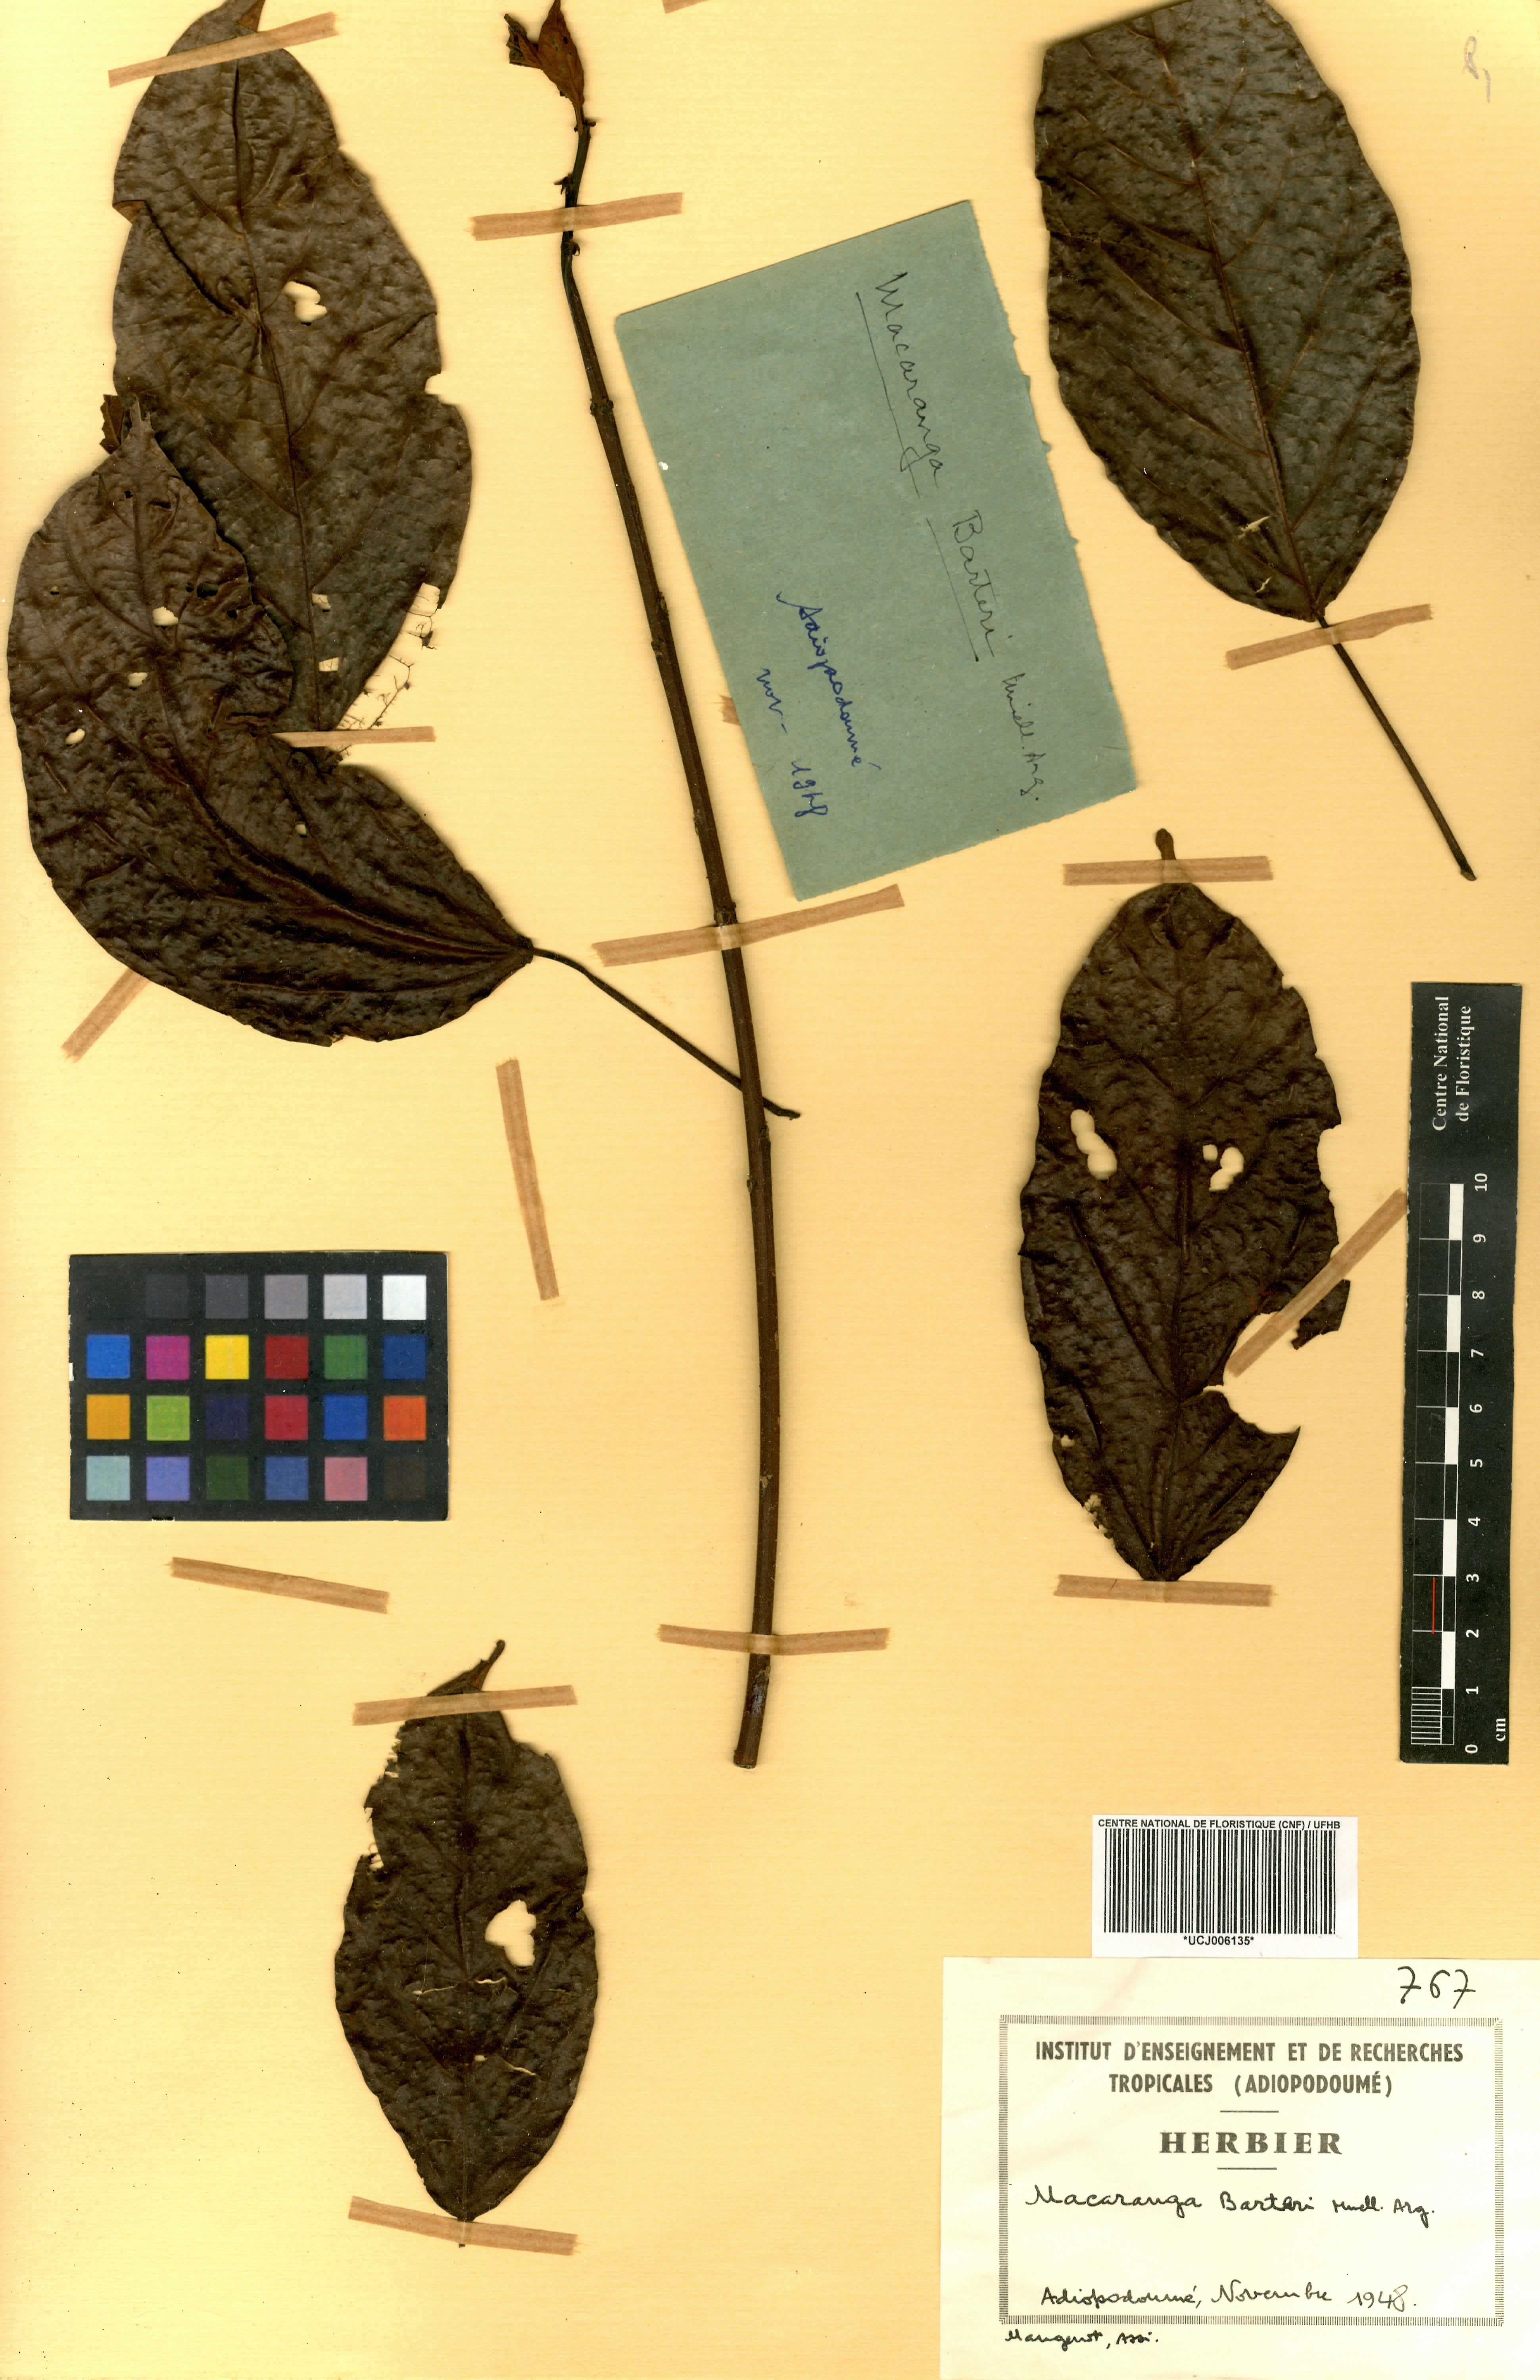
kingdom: Plantae
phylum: Tracheophyta
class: Magnoliopsida
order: Malpighiales
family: Euphorbiaceae
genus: Macaranga
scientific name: Macaranga barteri
